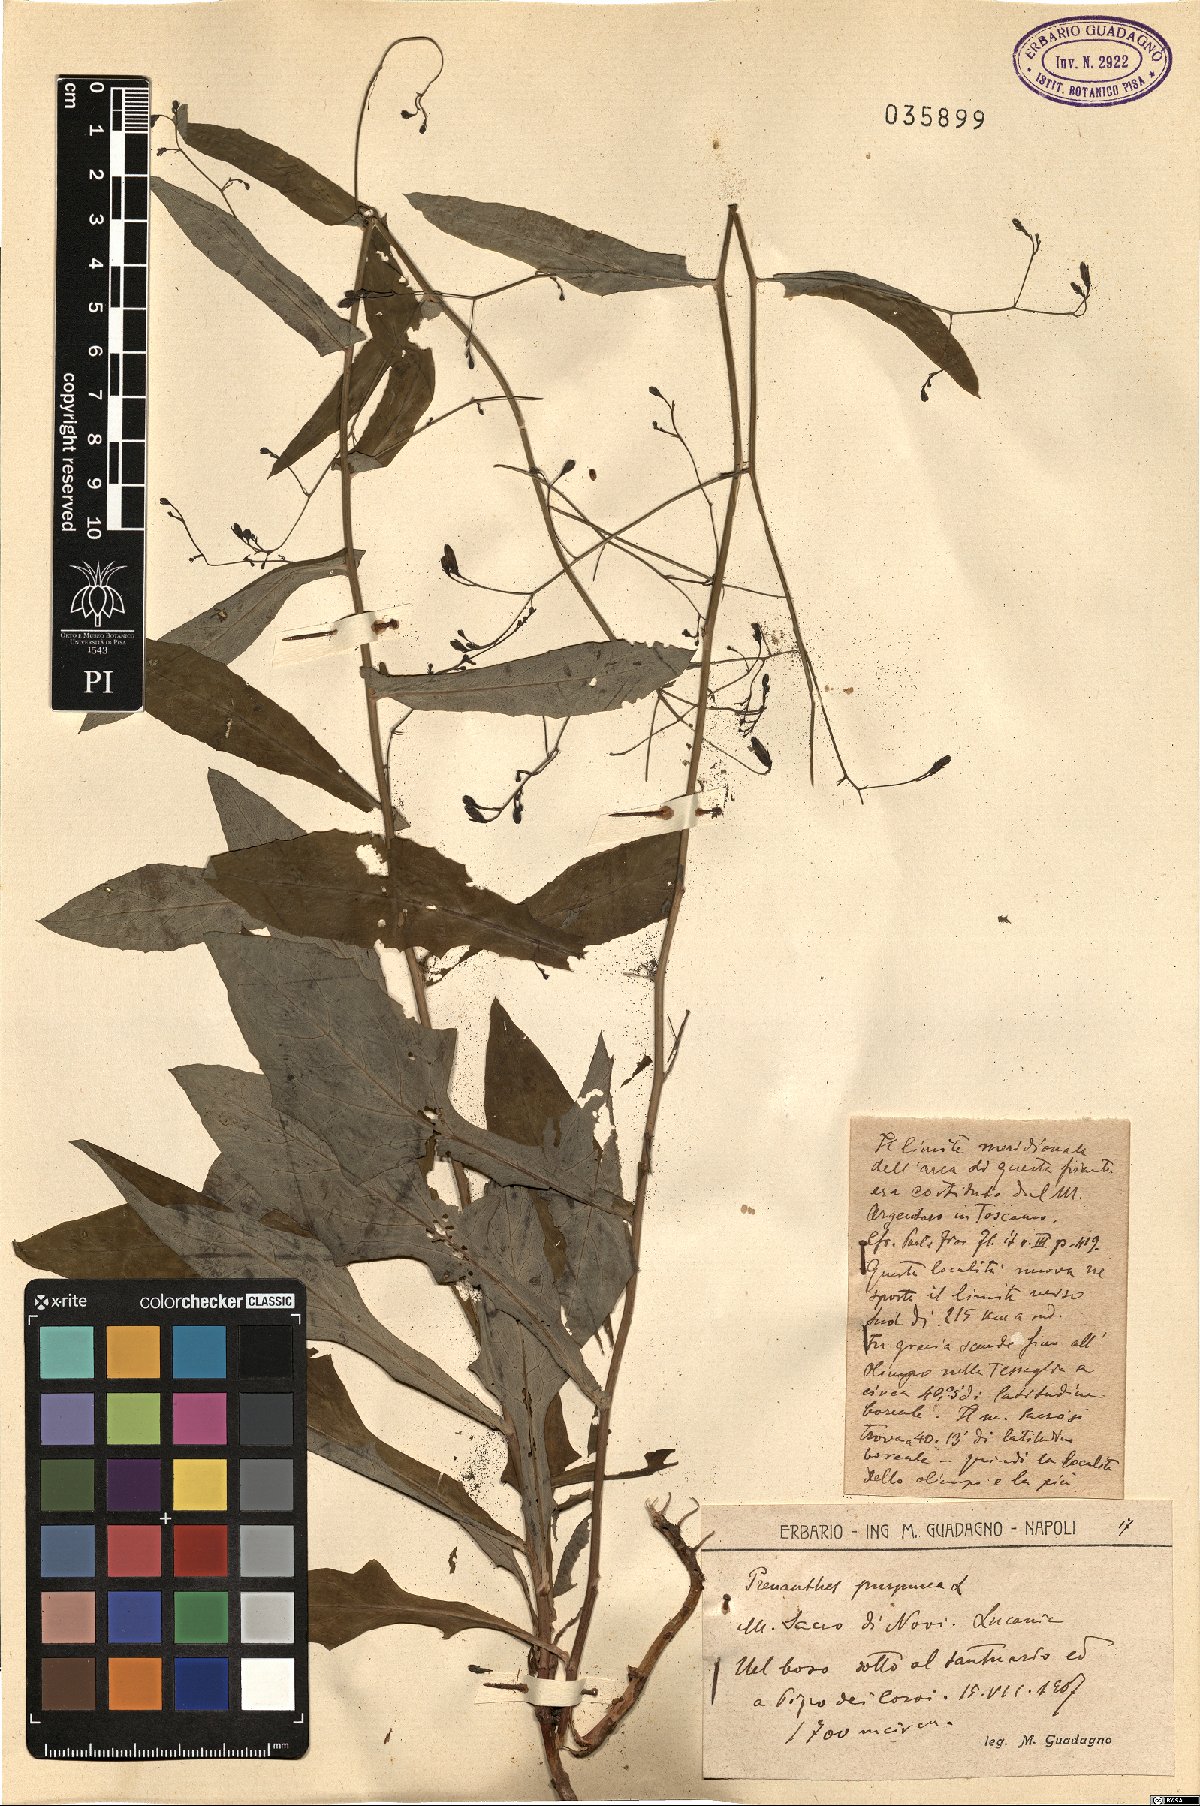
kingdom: Plantae
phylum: Tracheophyta
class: Magnoliopsida
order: Asterales
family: Asteraceae
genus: Prenanthes
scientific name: Prenanthes purpurea
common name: Purple lettuce
